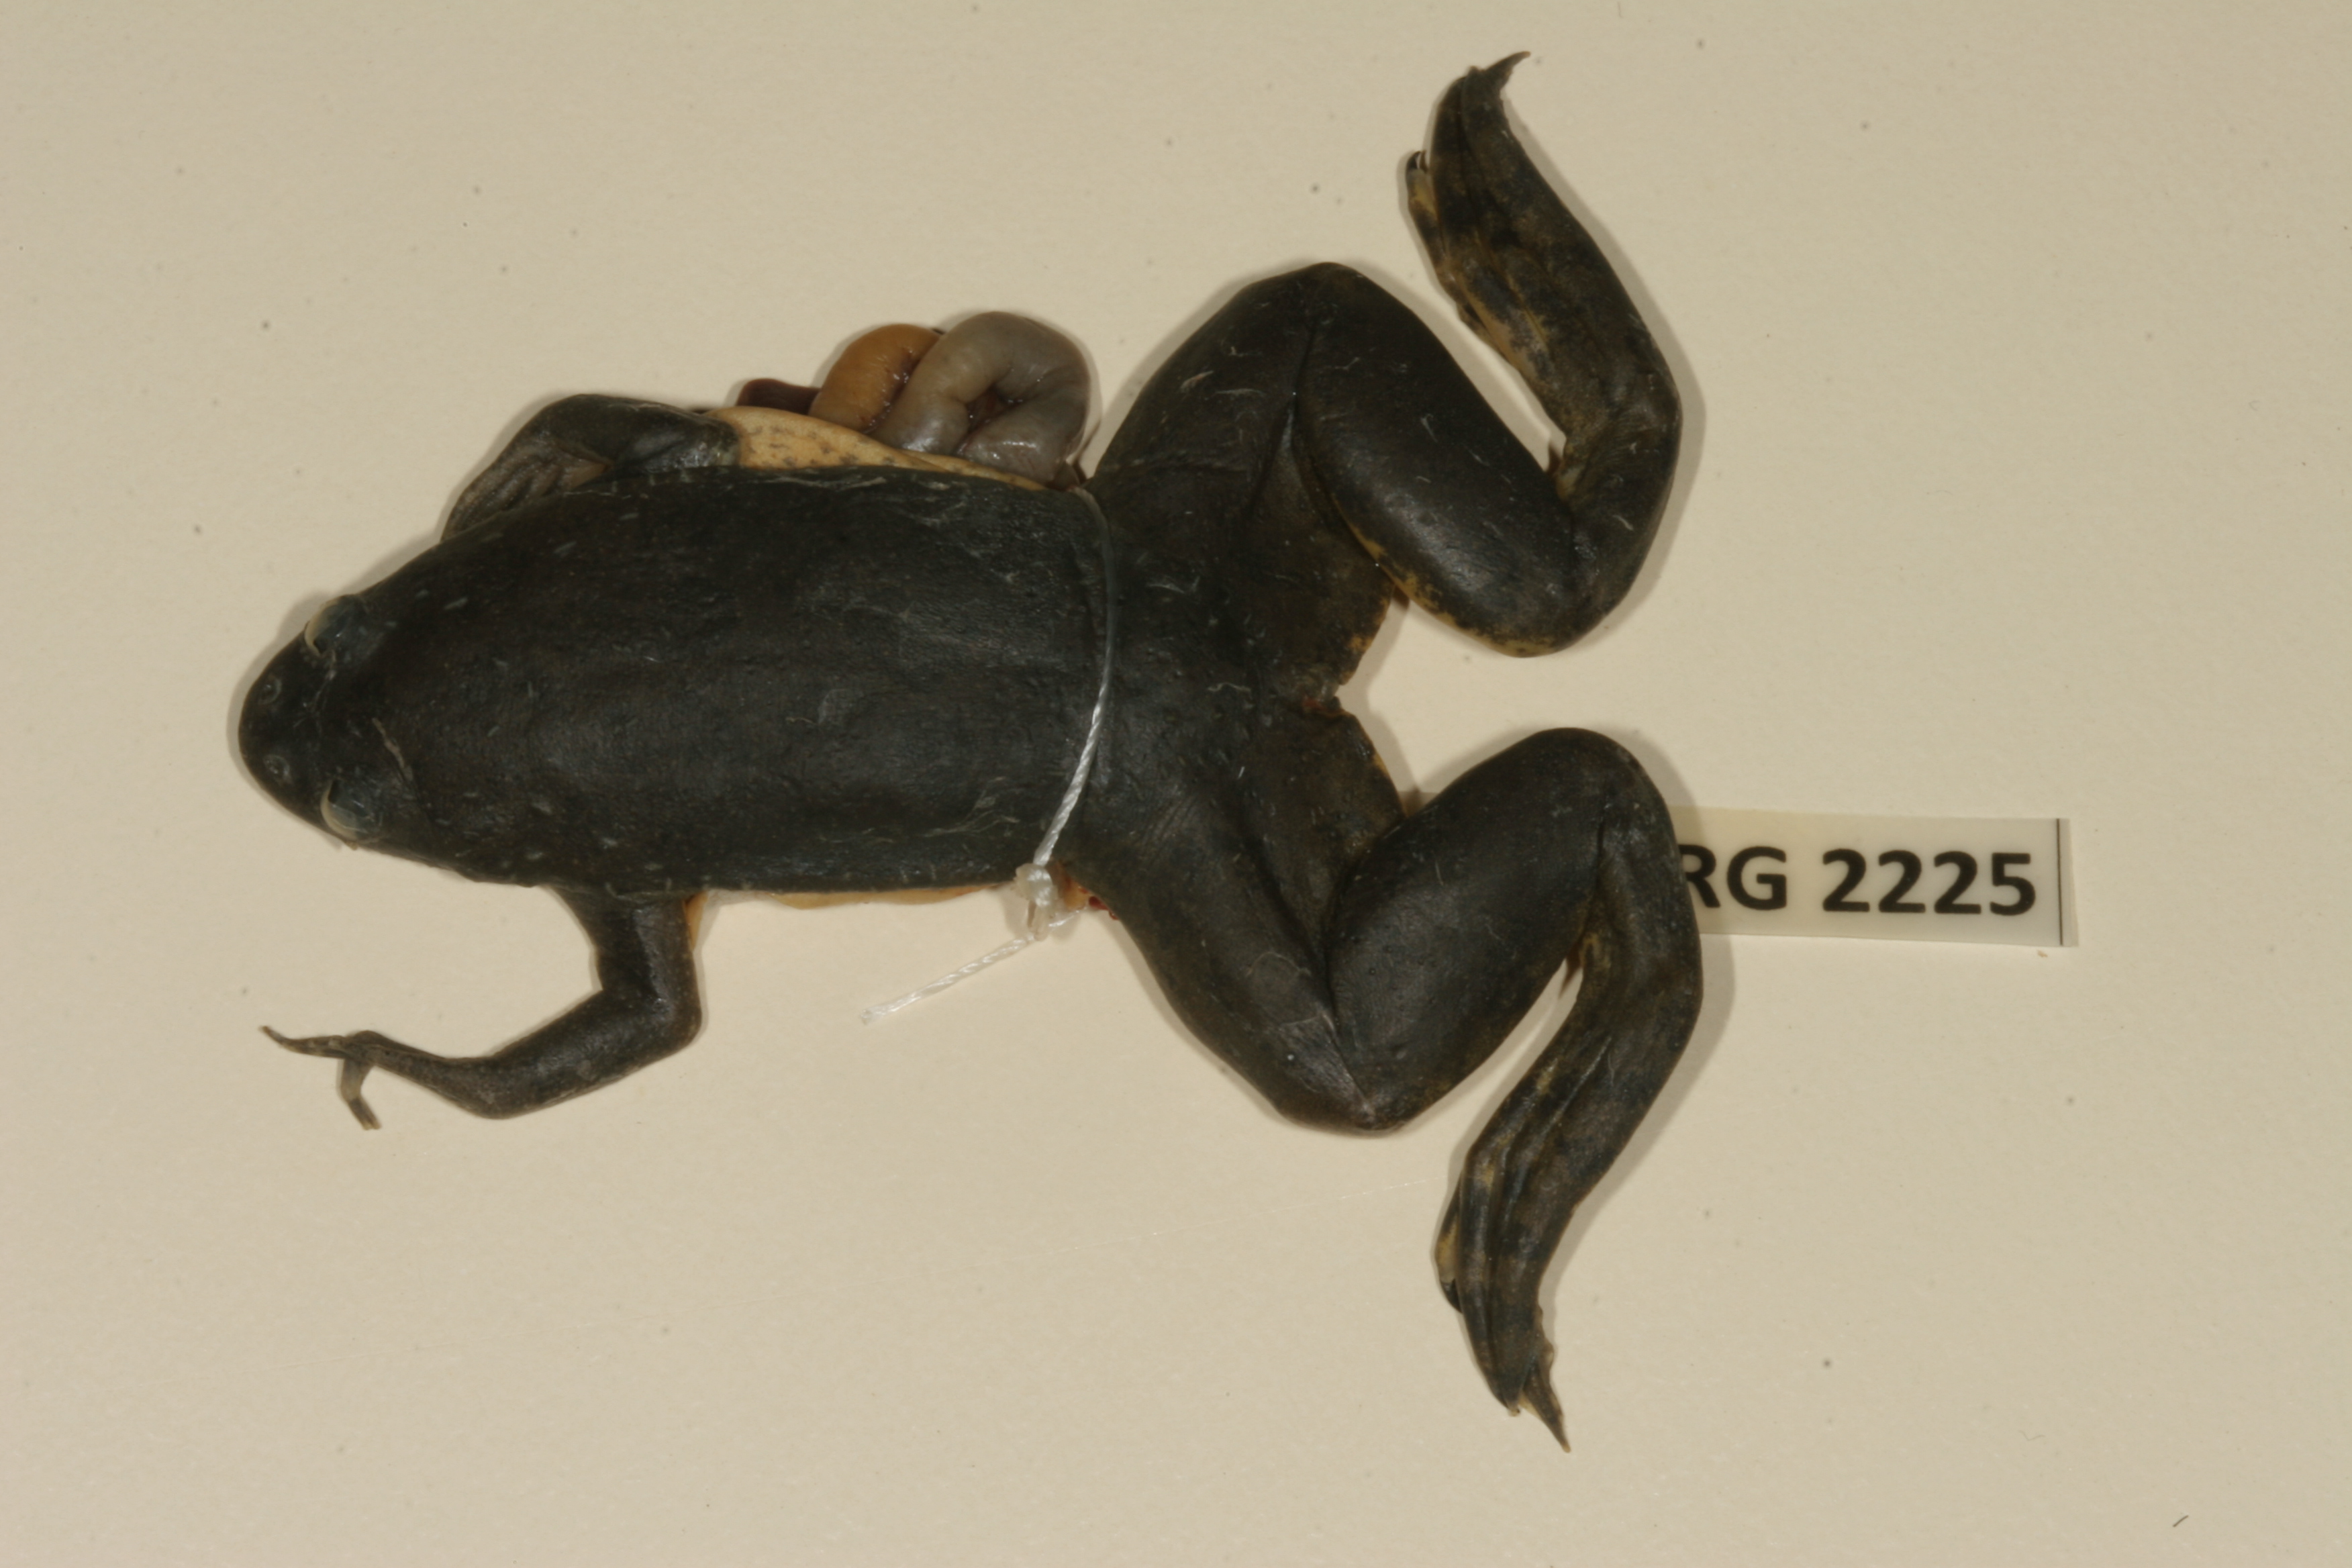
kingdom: Animalia
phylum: Chordata
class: Amphibia
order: Anura
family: Pipidae
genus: Xenopus
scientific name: Xenopus muelleri
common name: Muller's clawed frog
